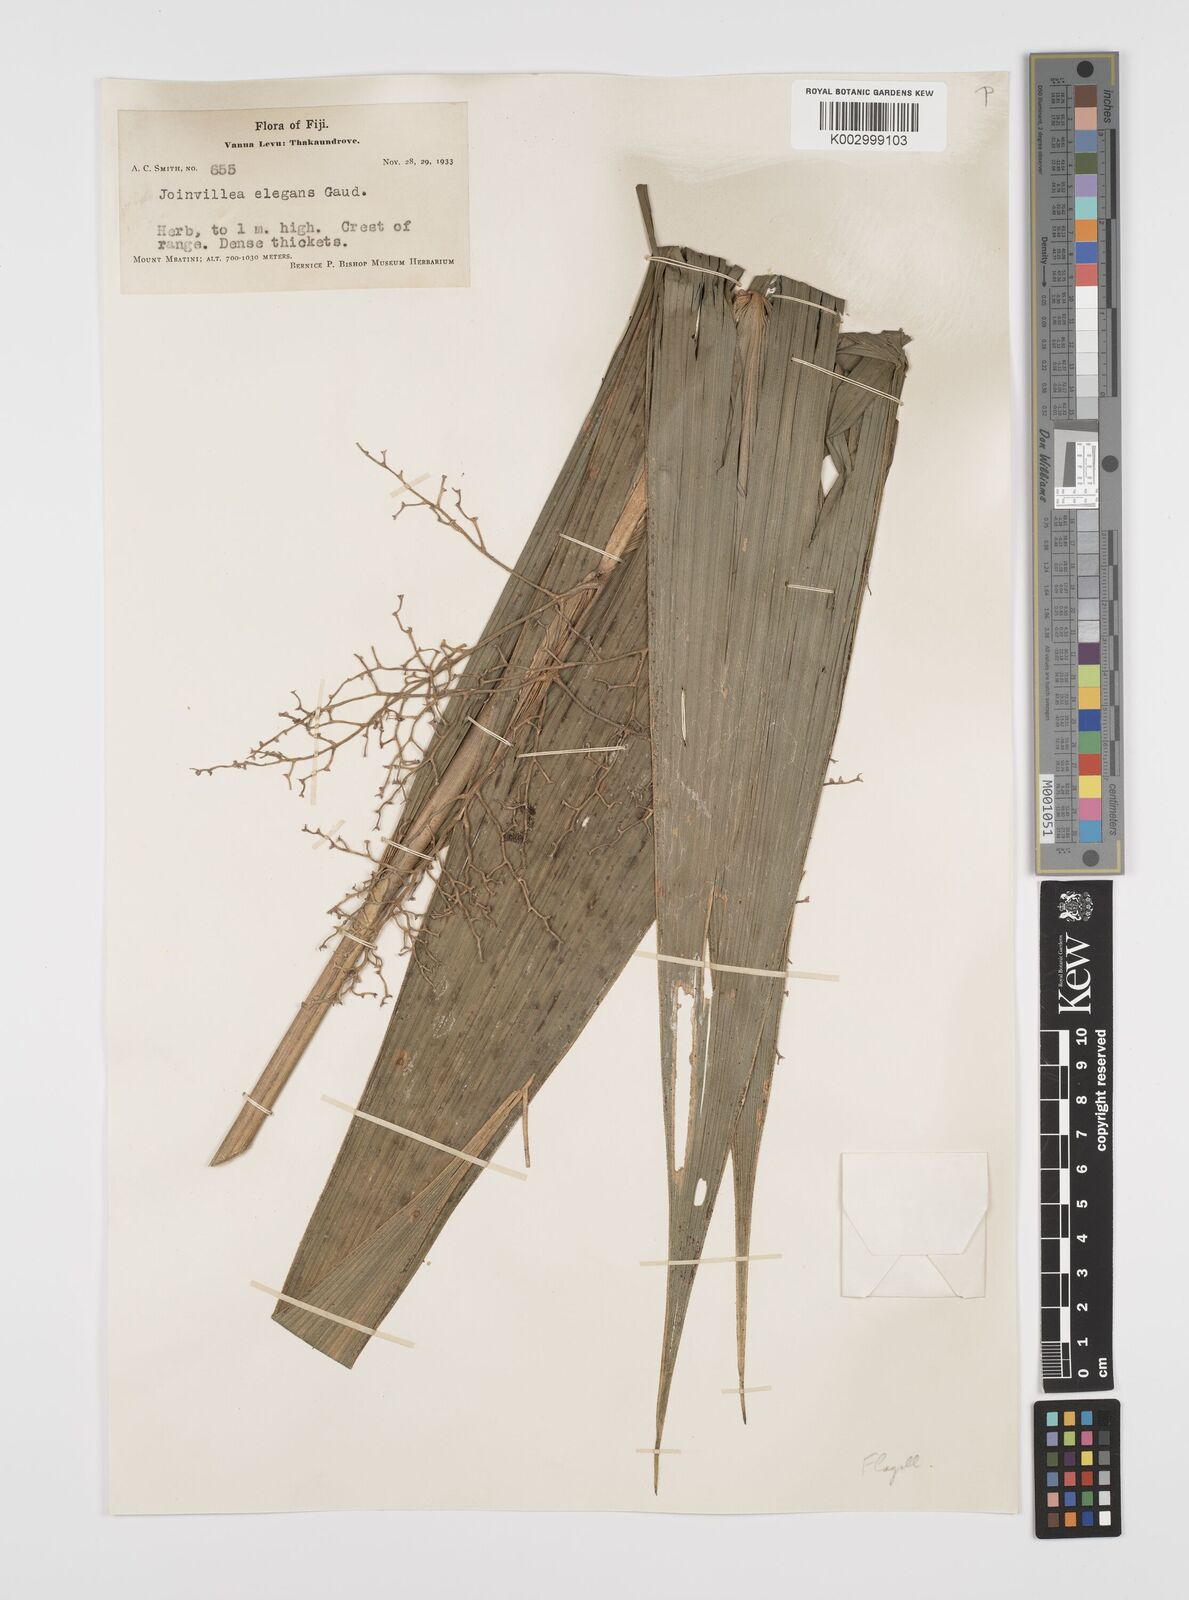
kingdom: Plantae
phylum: Tracheophyta
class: Liliopsida
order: Poales
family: Joinvilleaceae
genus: Joinvillea
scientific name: Joinvillea plicata
